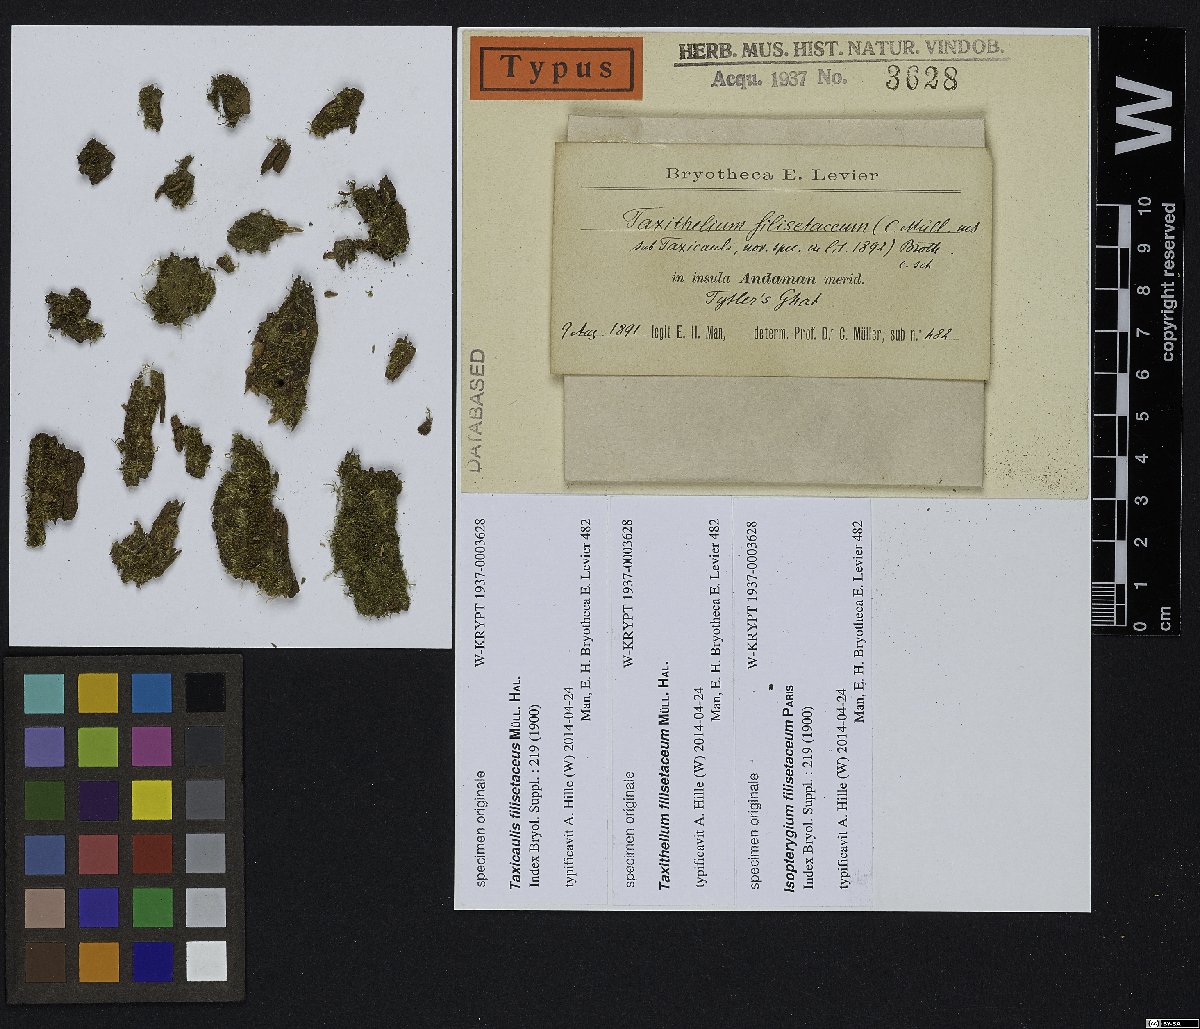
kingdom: Plantae
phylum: Bryophyta
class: Bryopsida
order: Hypnales
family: Hypnaceae
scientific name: Hypnaceae
